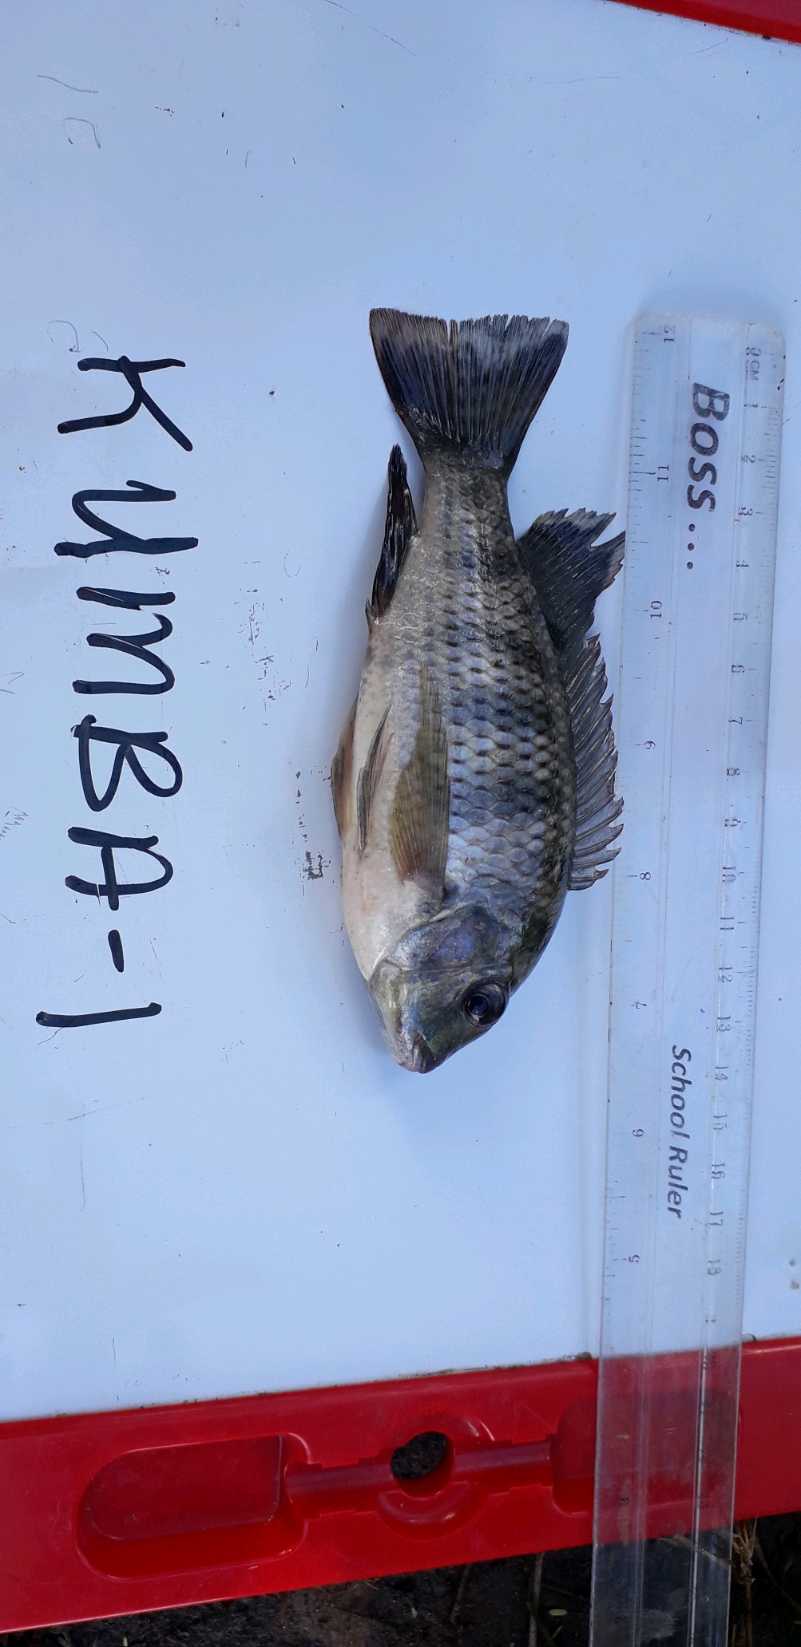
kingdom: Animalia
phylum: Chordata
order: Perciformes
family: Cichlidae
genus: Coptodon
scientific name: Coptodon rendalli
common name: Redbreast tilapia
